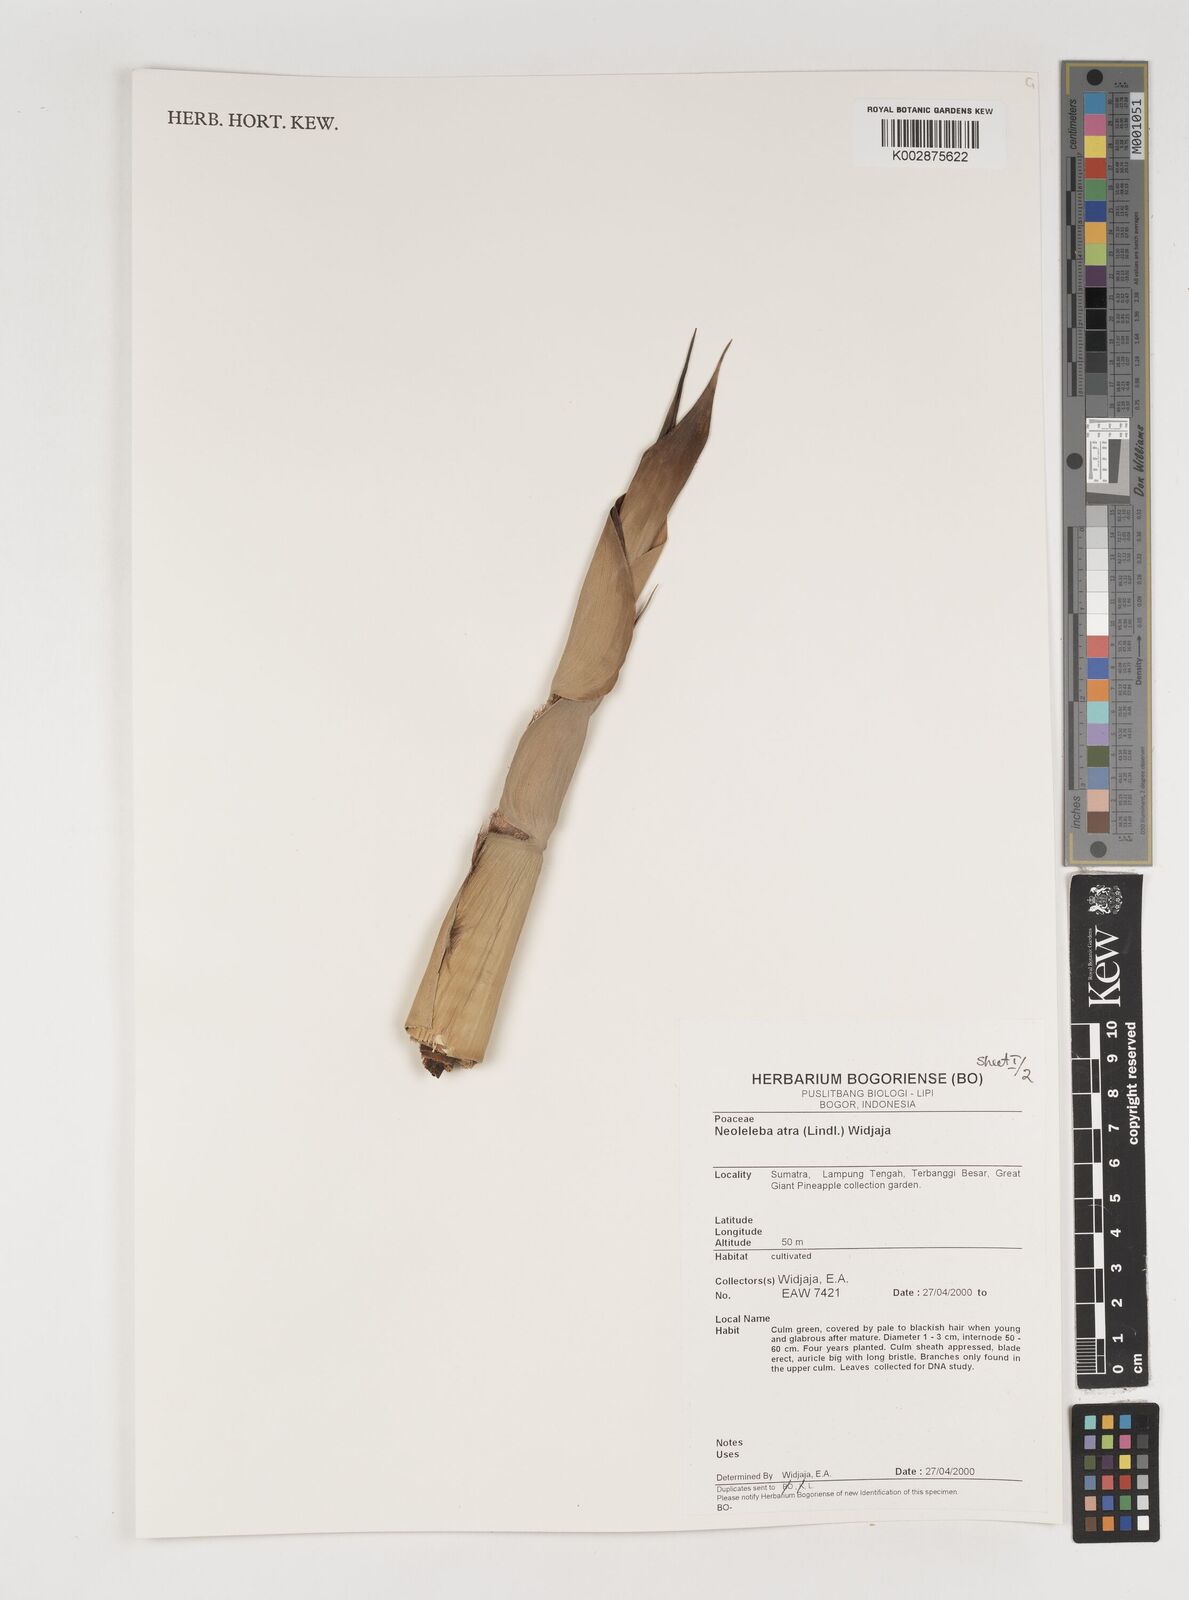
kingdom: Plantae
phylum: Tracheophyta
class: Liliopsida
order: Poales
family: Poaceae
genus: Neololeba
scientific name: Neololeba atra
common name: Cape bamboo
